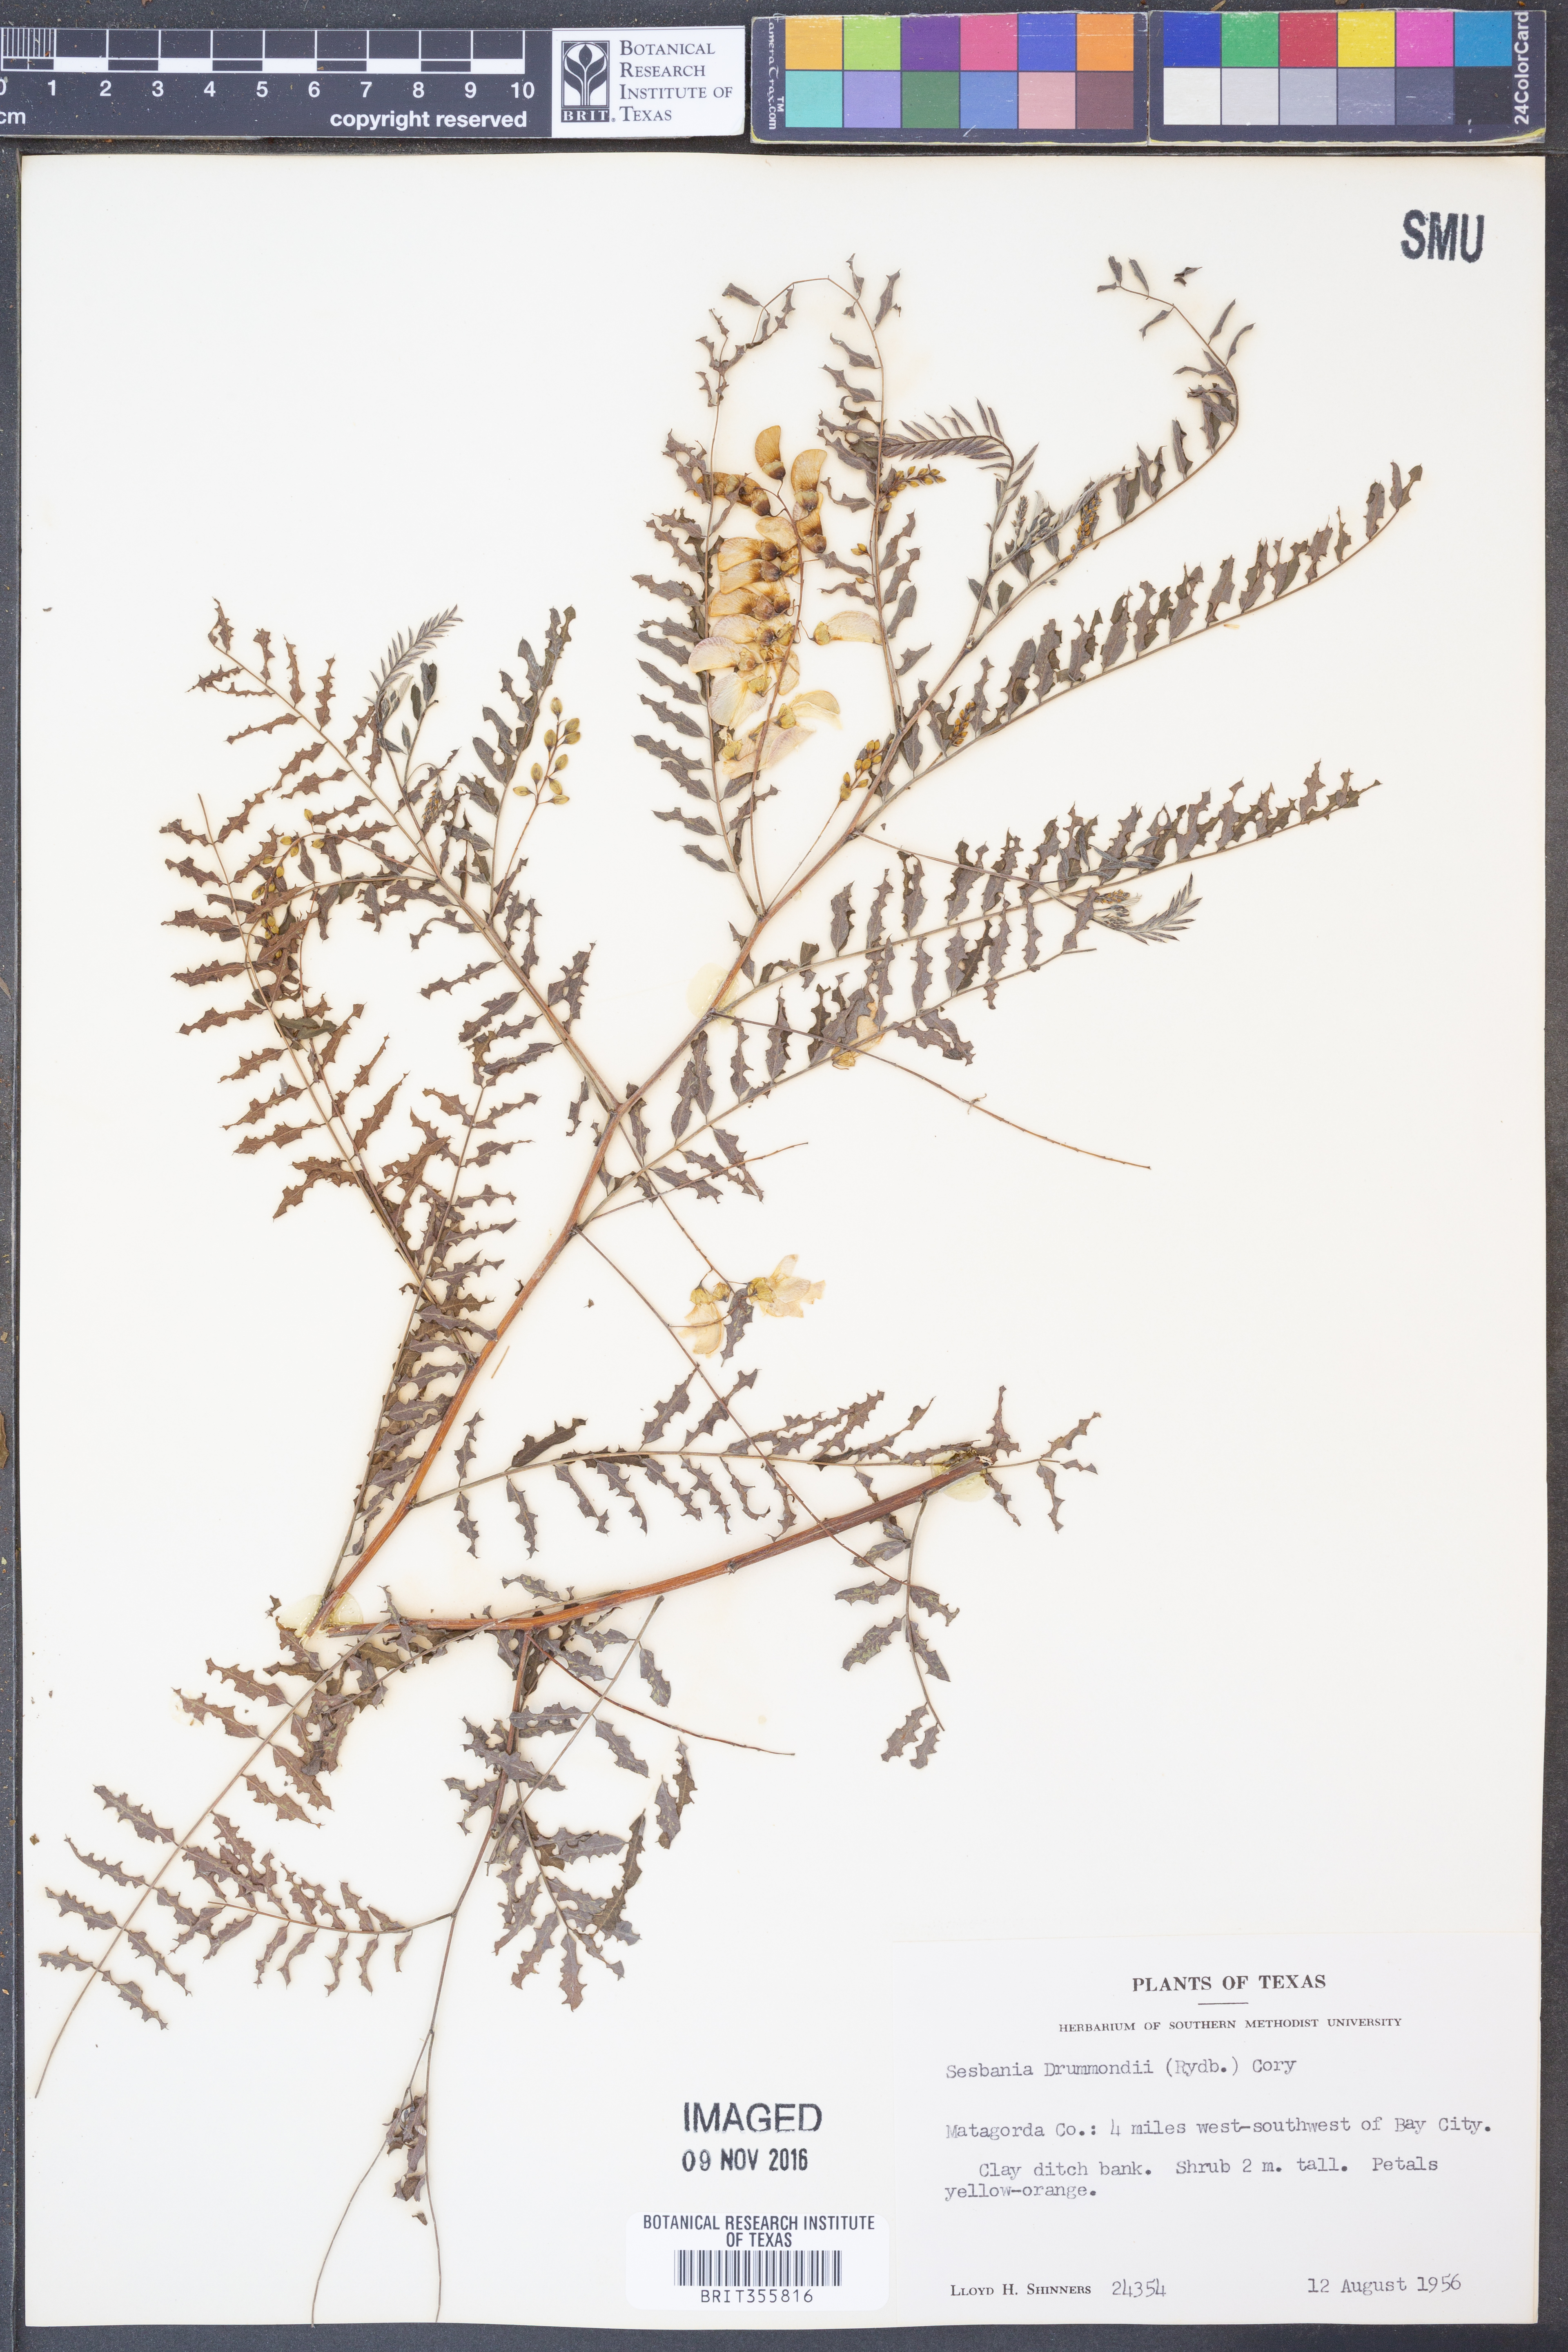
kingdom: Plantae
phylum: Tracheophyta
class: Magnoliopsida
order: Fabales
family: Fabaceae
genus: Sesbania
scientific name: Sesbania drummondii
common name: Poison-bean
